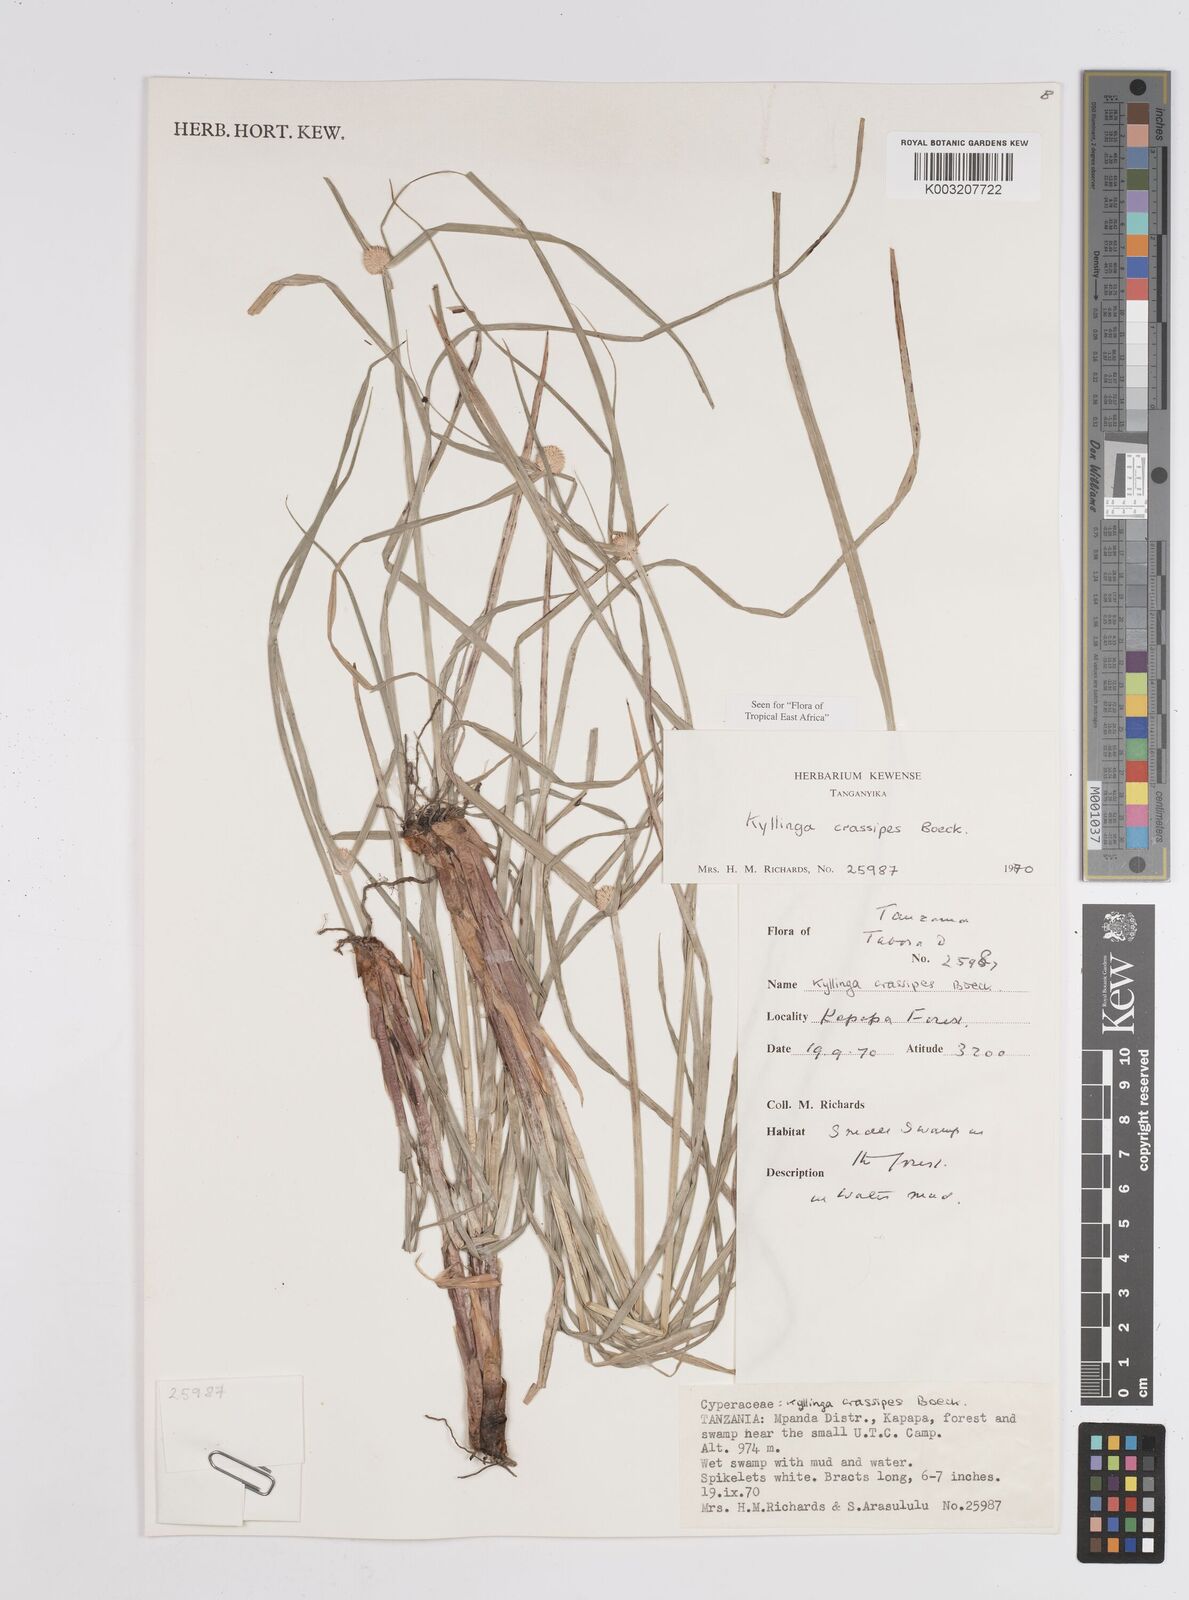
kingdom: Plantae
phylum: Tracheophyta
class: Liliopsida
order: Poales
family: Cyperaceae
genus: Cyperus
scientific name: Cyperus
